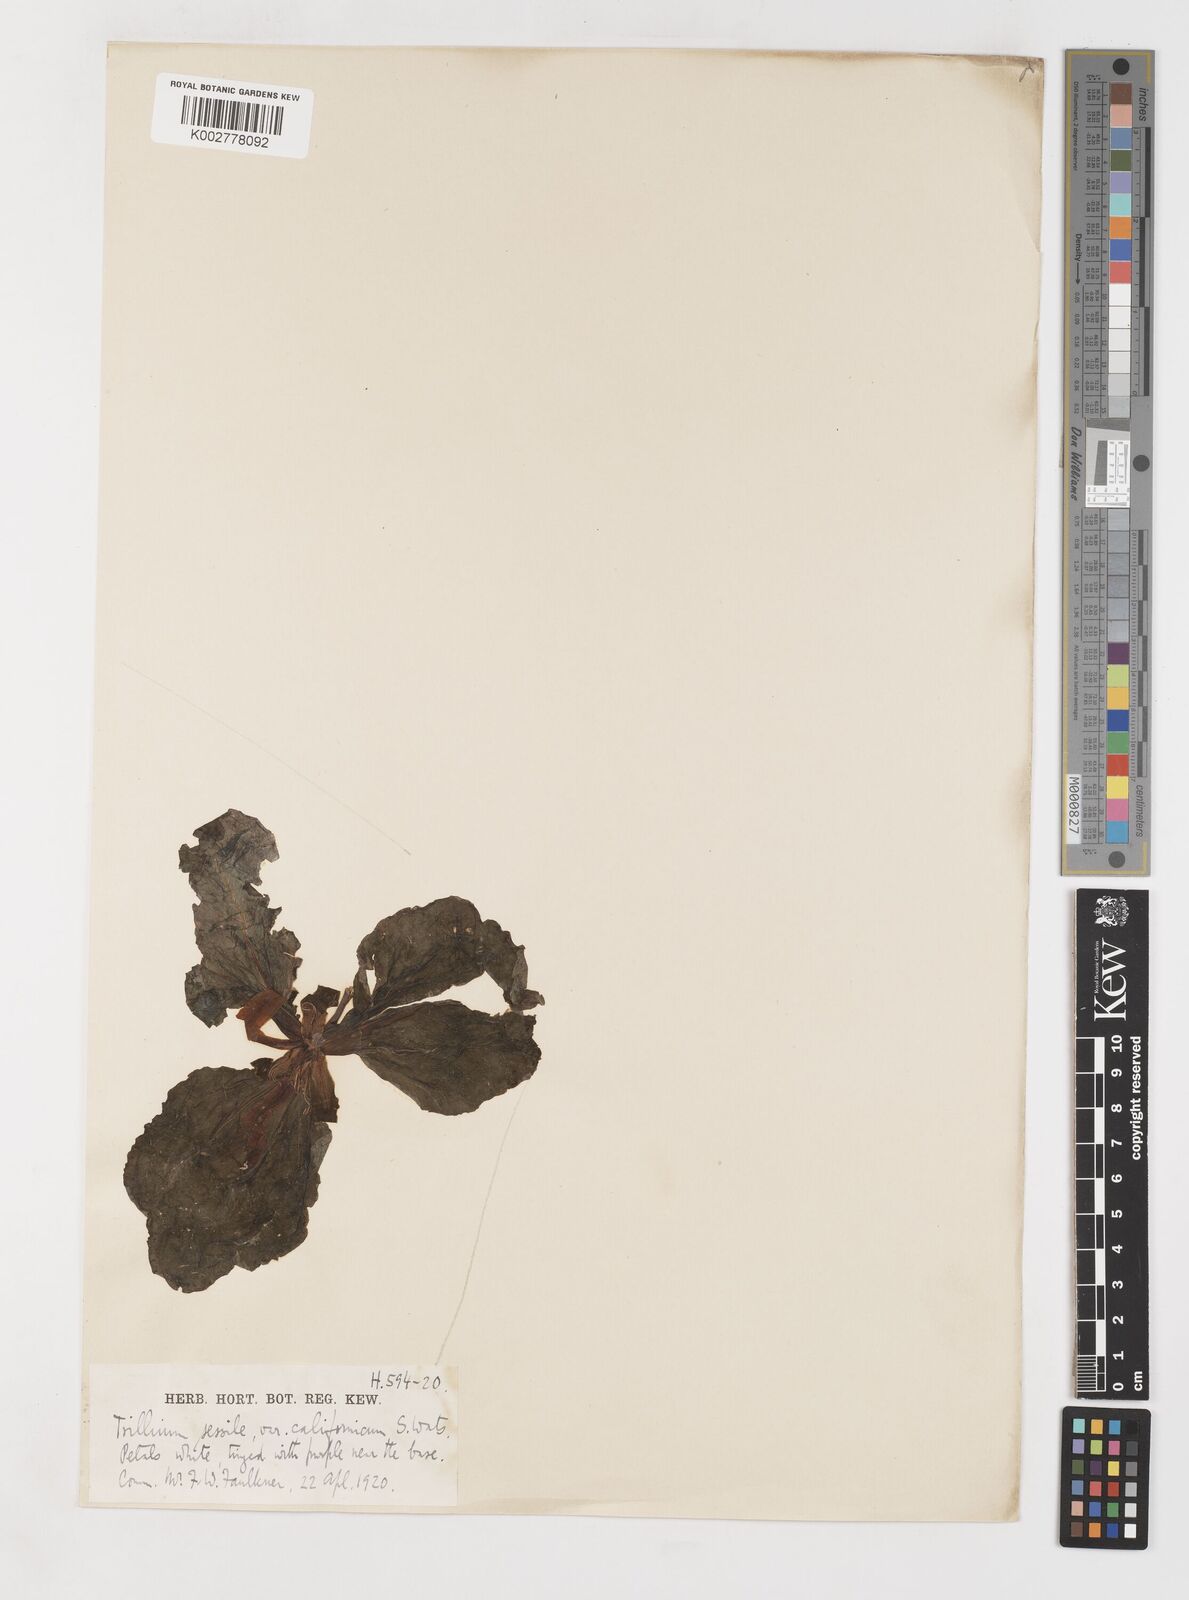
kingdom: Plantae
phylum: Tracheophyta
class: Liliopsida
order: Liliales
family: Melanthiaceae
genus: Trillium
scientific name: Trillium chloropetalum
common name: Giant trillium
